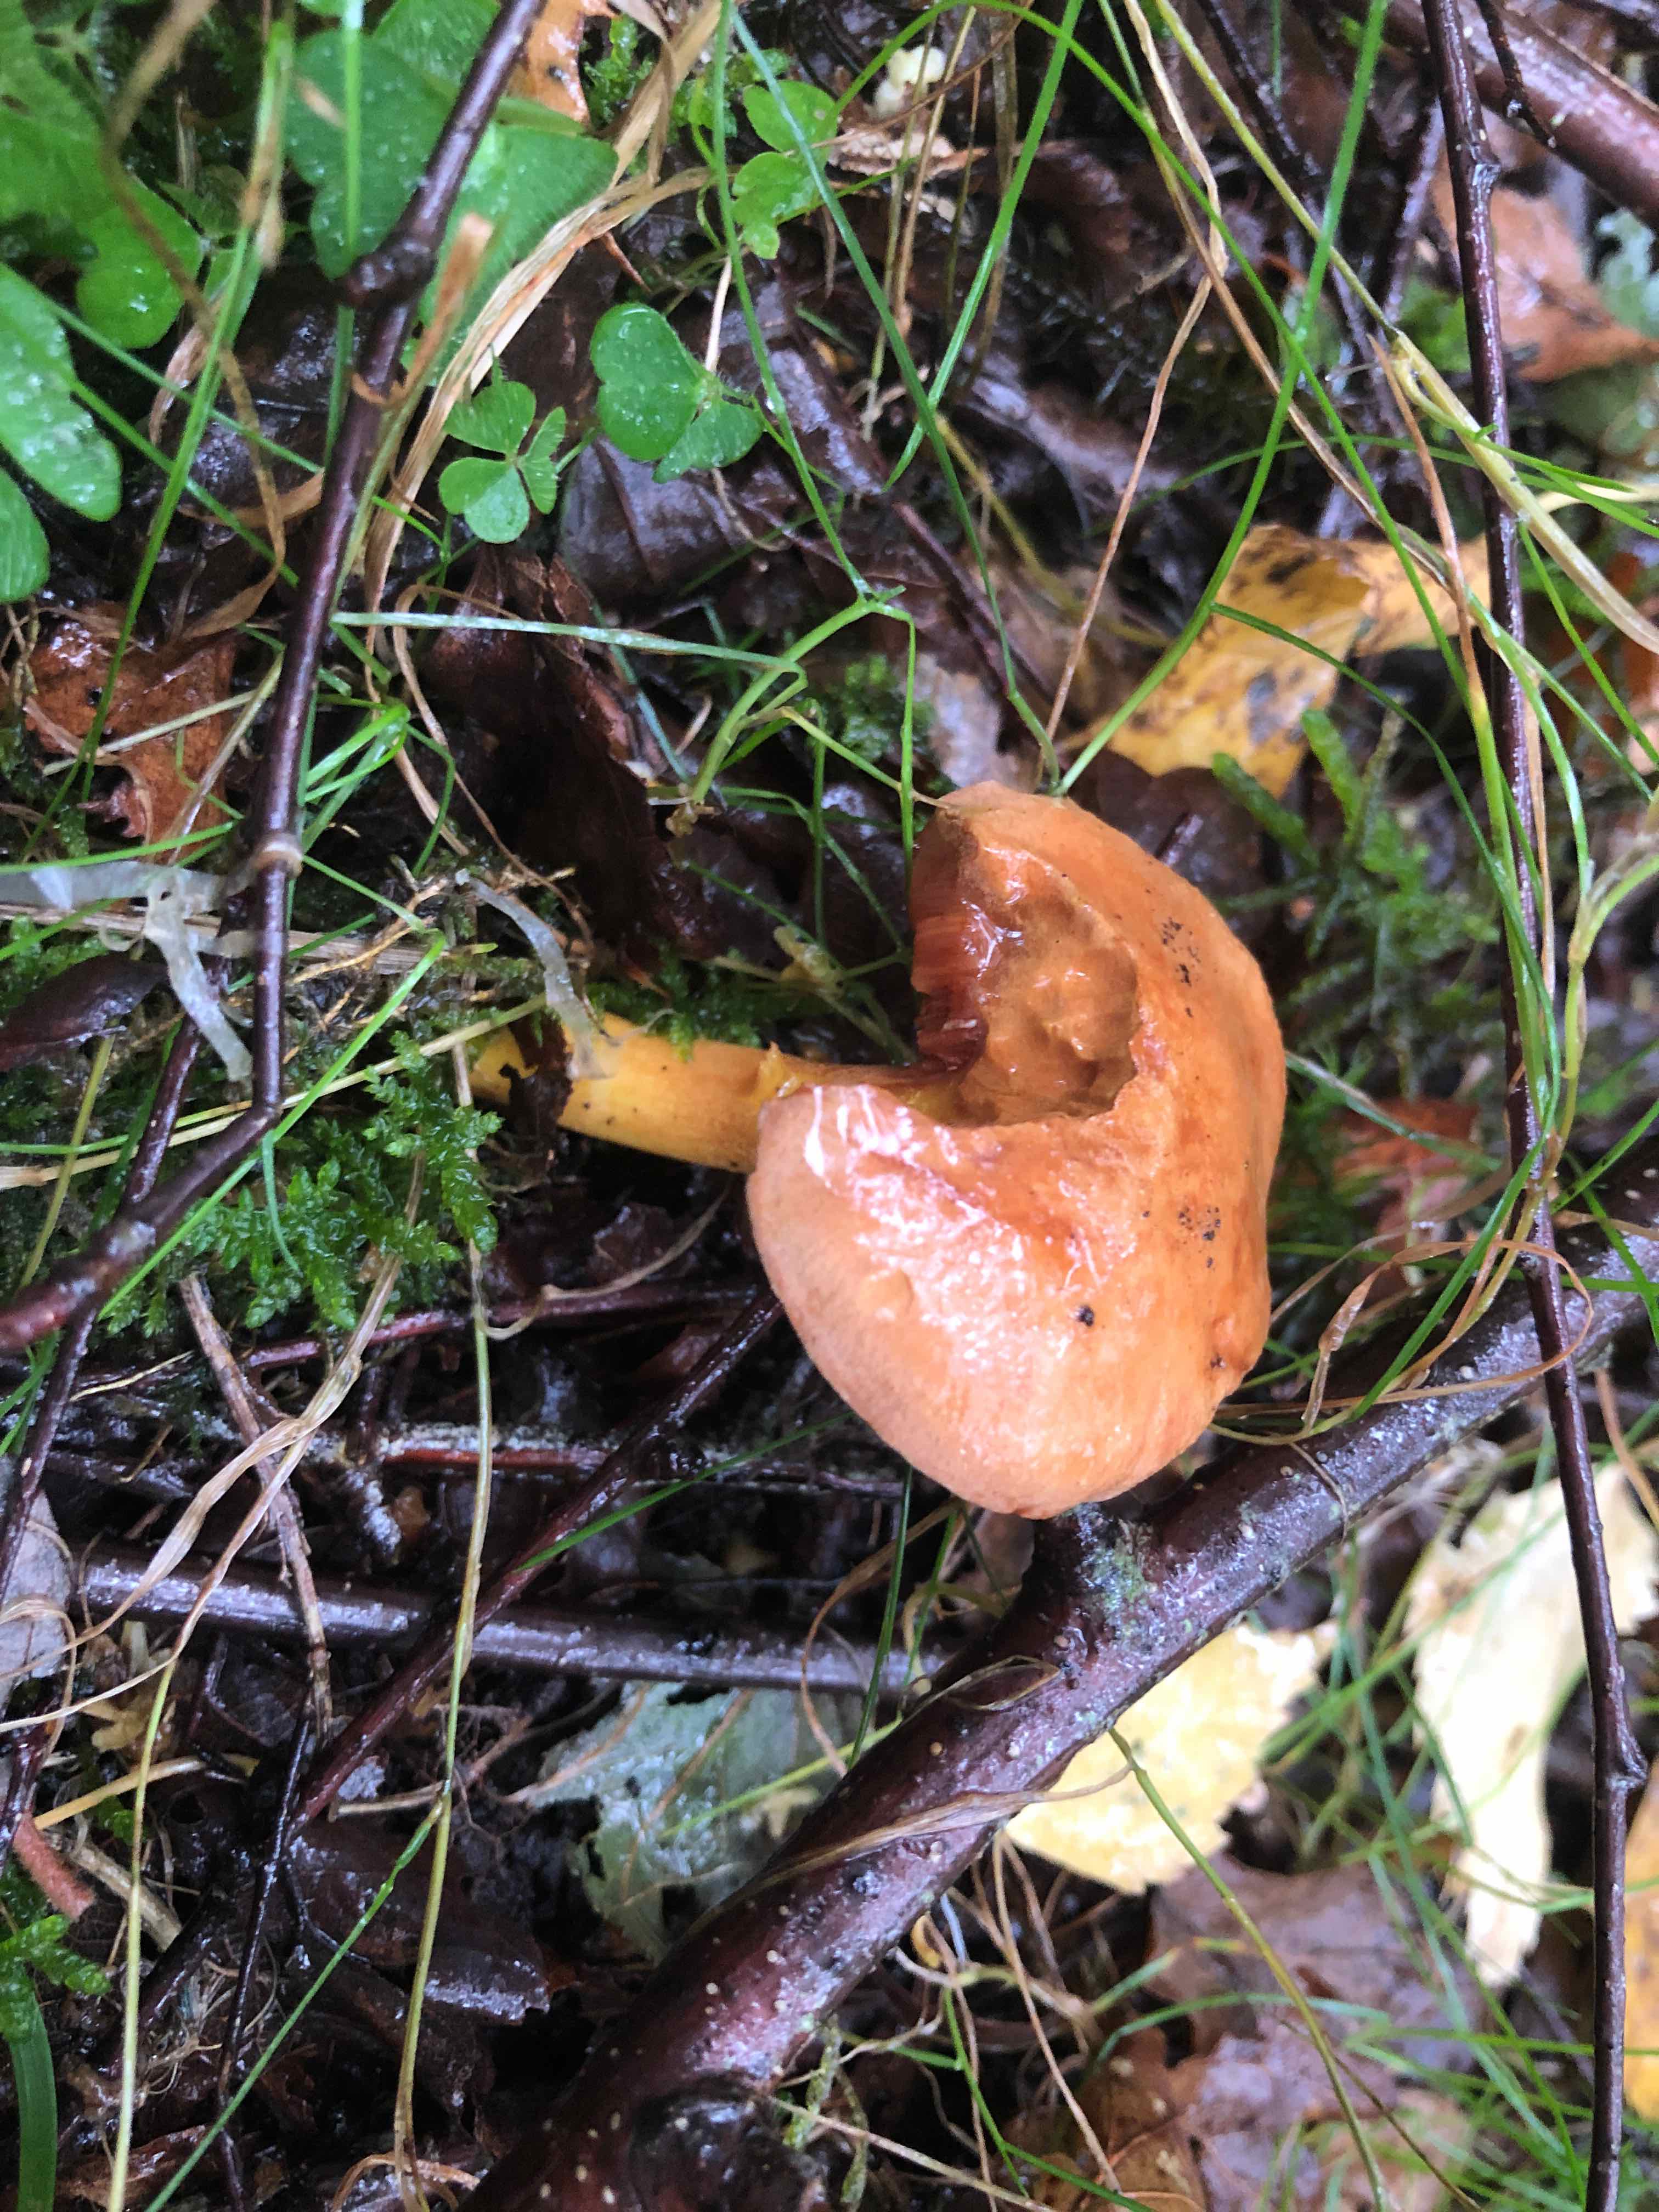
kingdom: Fungi
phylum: Basidiomycota
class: Agaricomycetes
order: Boletales
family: Boletaceae
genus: Chalciporus
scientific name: Chalciporus piperatus
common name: peberrørhat
